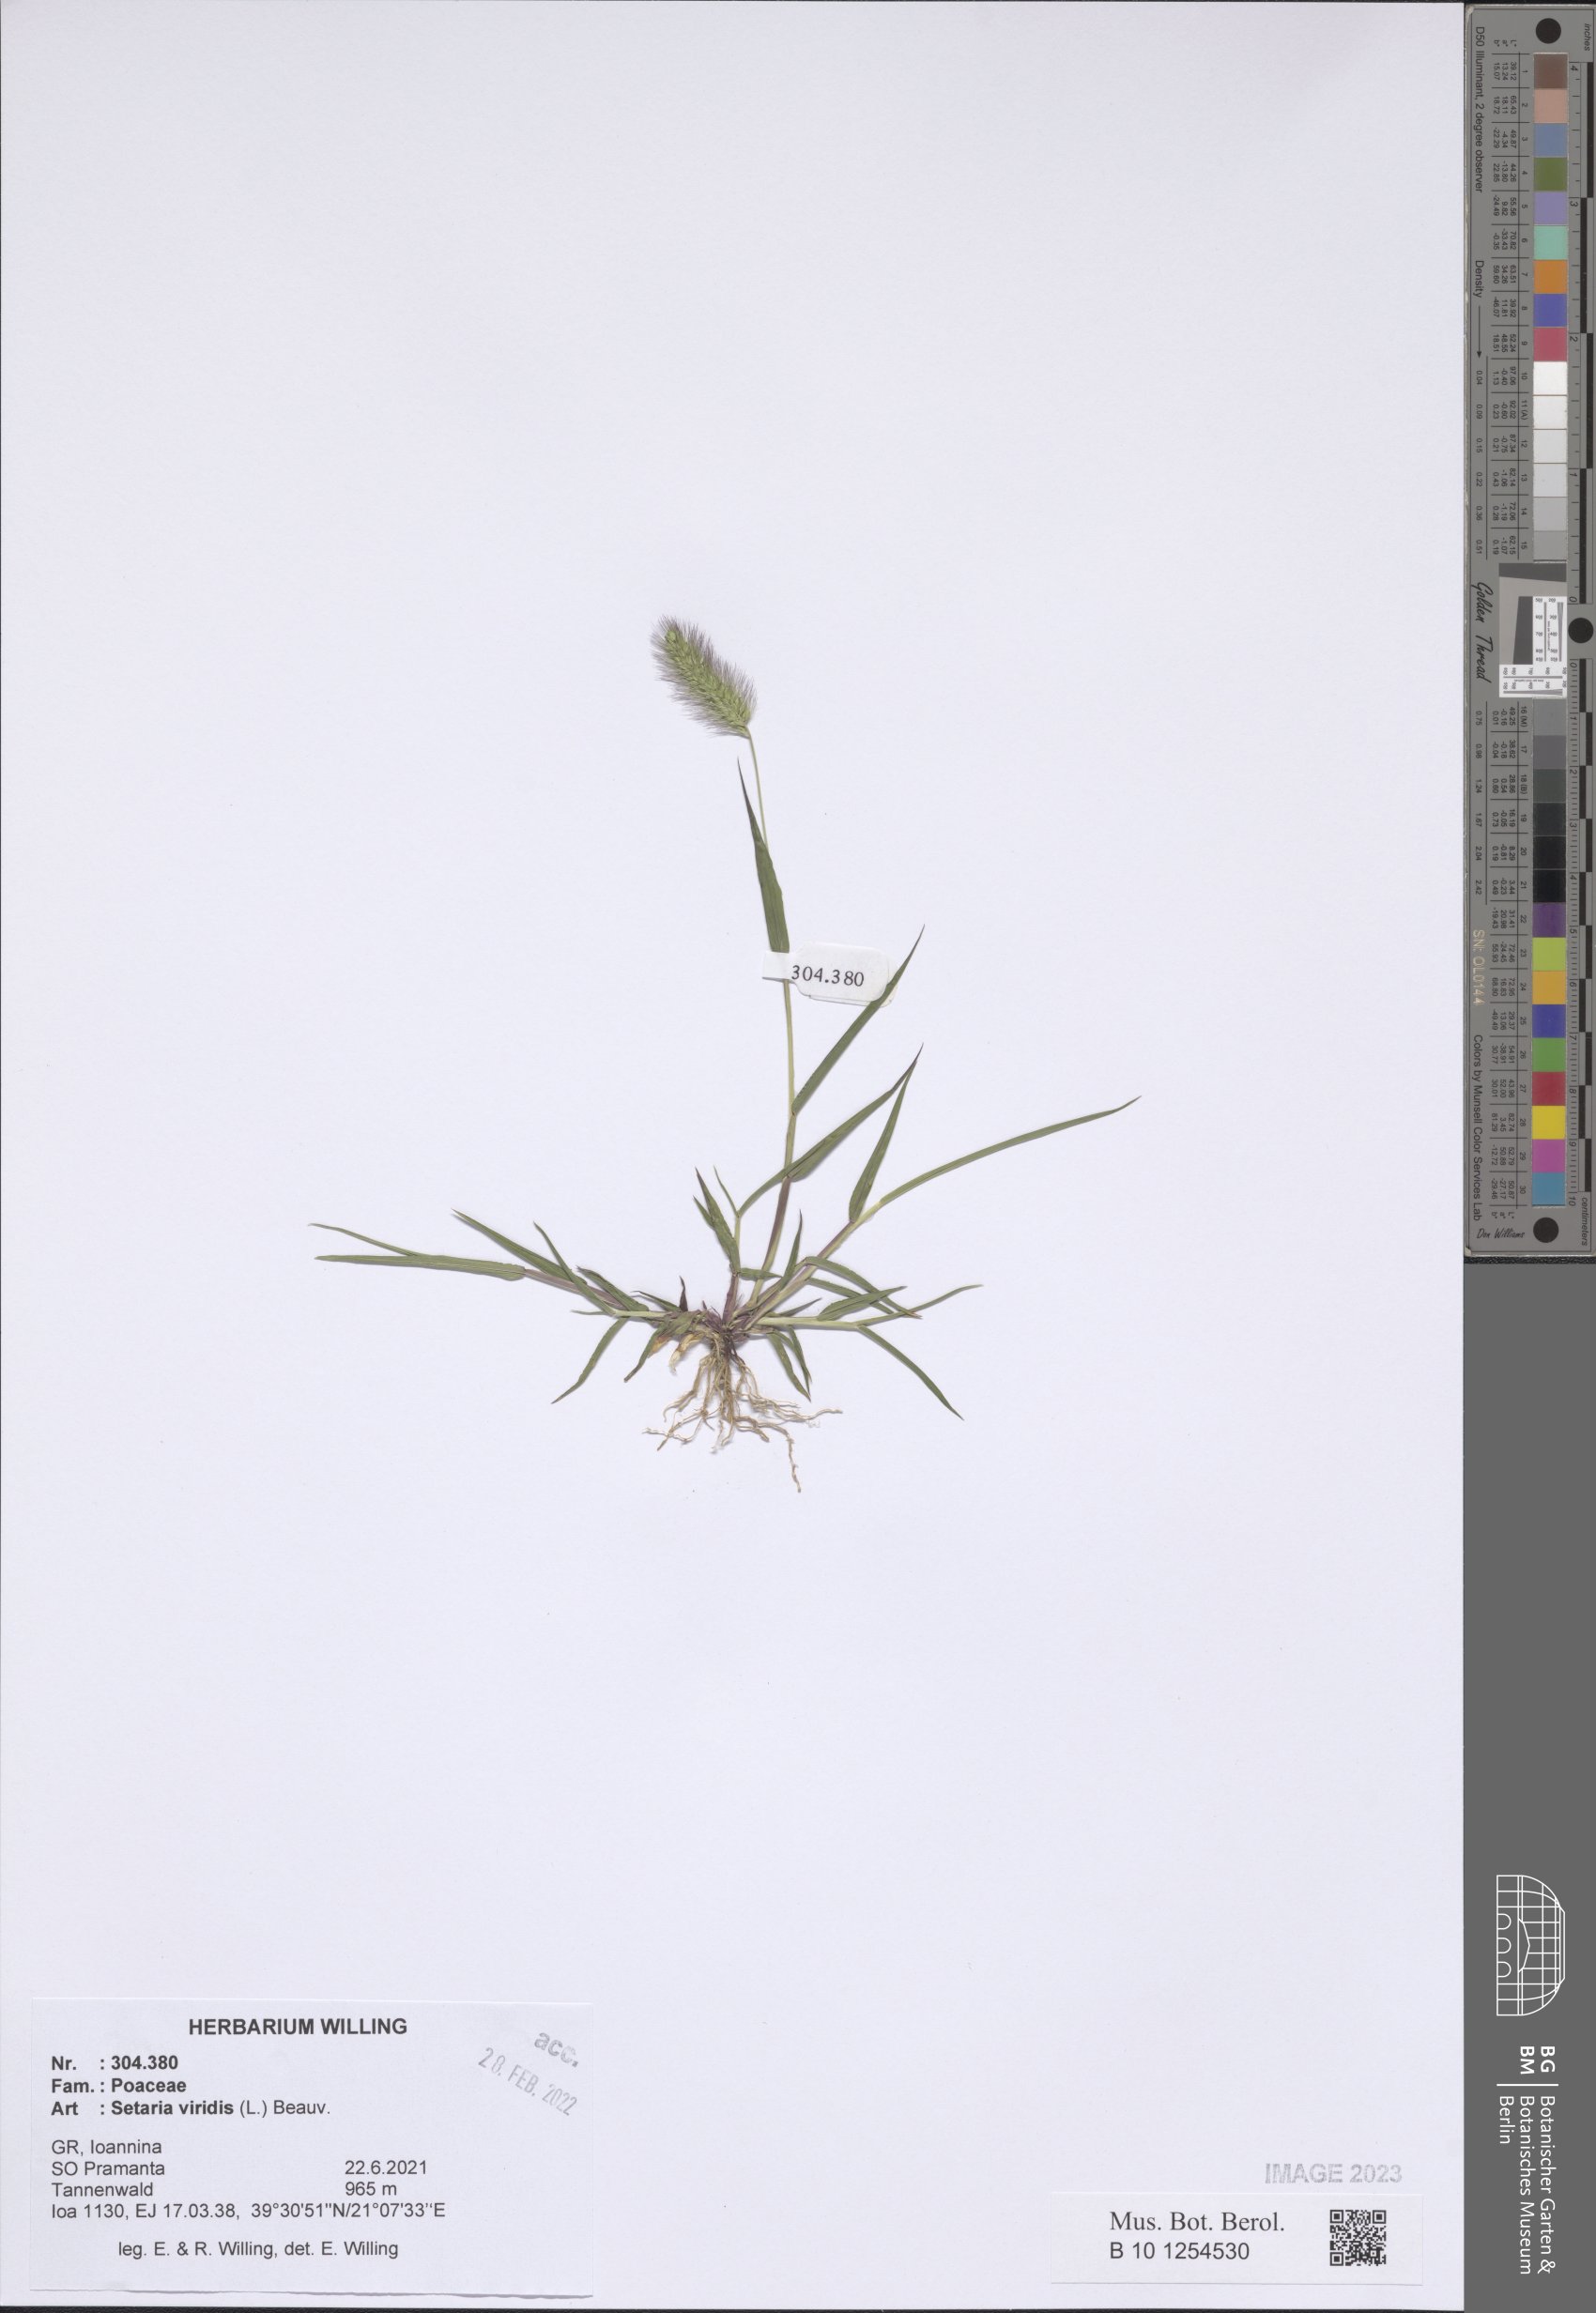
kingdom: Plantae
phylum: Tracheophyta
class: Liliopsida
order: Poales
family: Poaceae
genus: Setaria
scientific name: Setaria viridis
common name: Green bristlegrass
